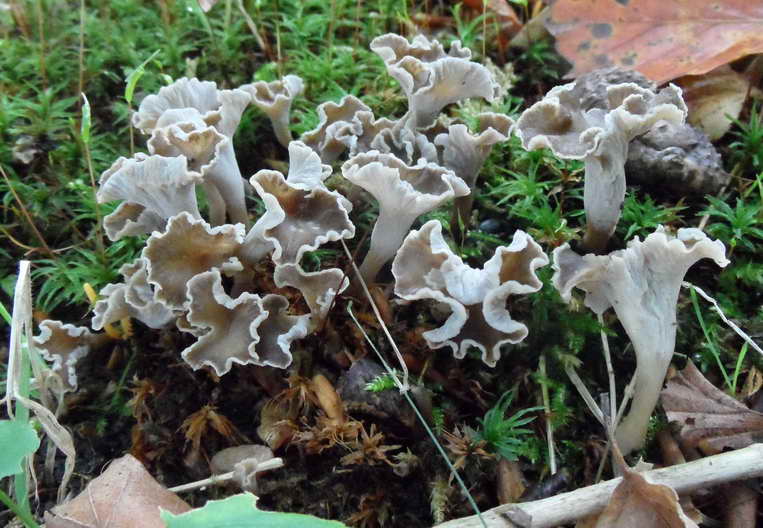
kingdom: Fungi
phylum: Basidiomycota
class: Agaricomycetes
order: Cantharellales
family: Hydnaceae
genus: Craterellus
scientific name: Craterellus undulatus
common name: liden kantarel
